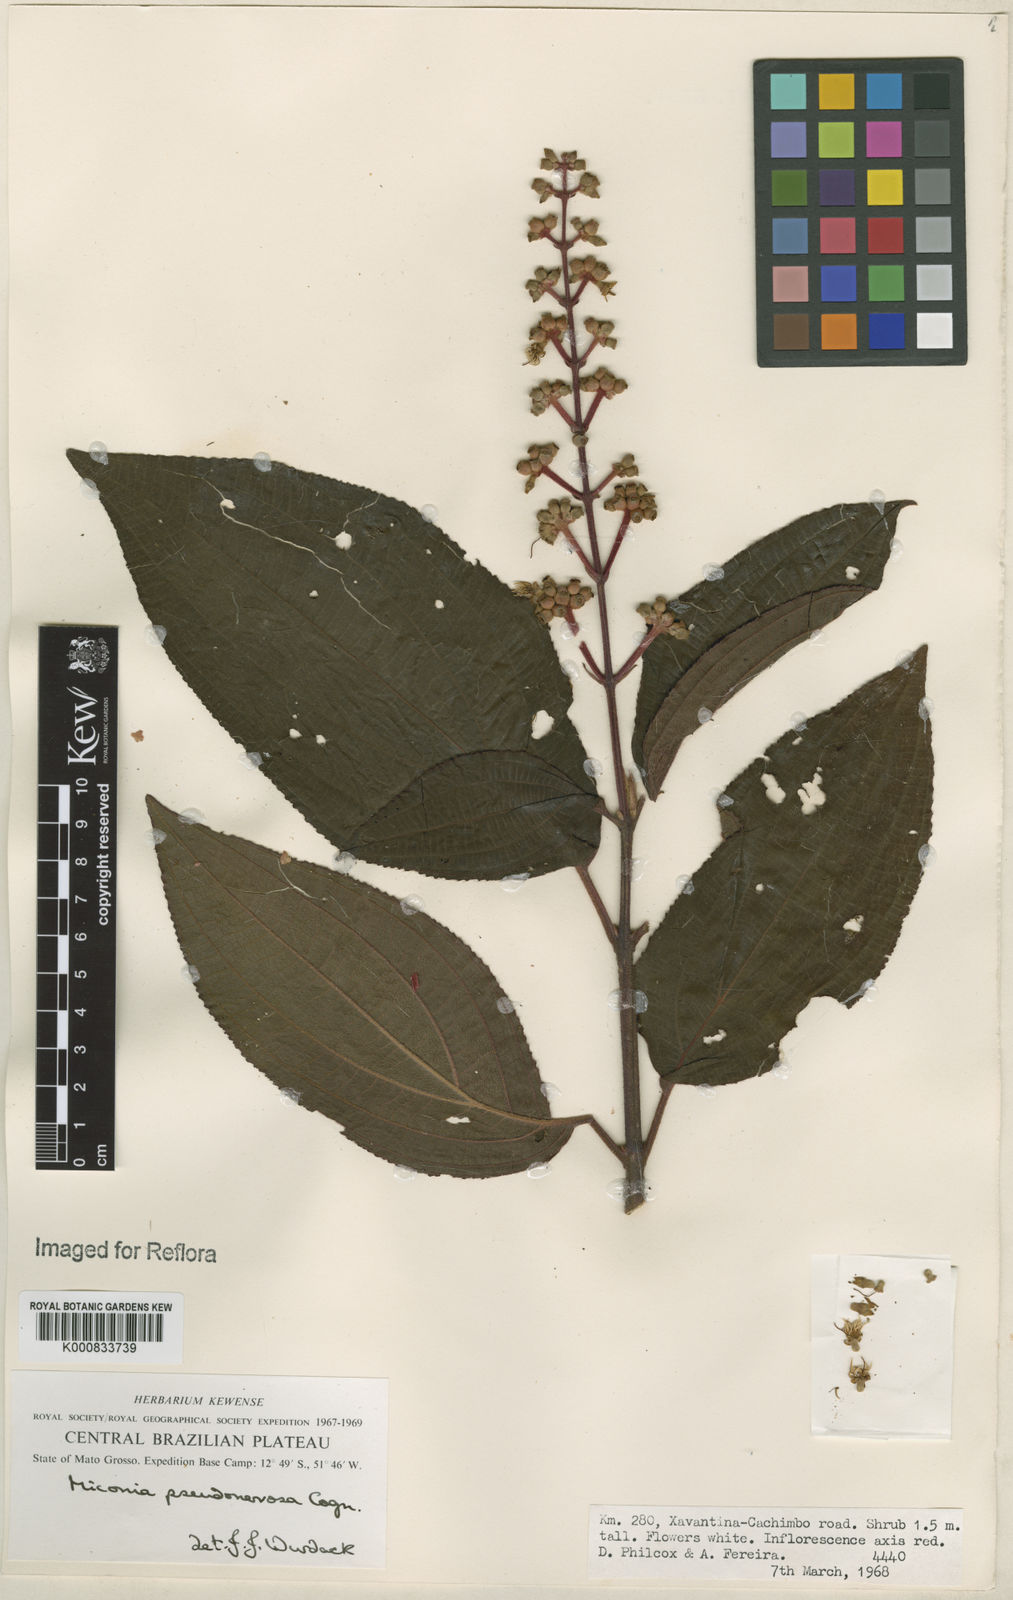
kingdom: Plantae
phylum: Tracheophyta
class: Magnoliopsida
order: Myrtales
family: Melastomataceae
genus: Miconia
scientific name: Miconia pseudonervosa
